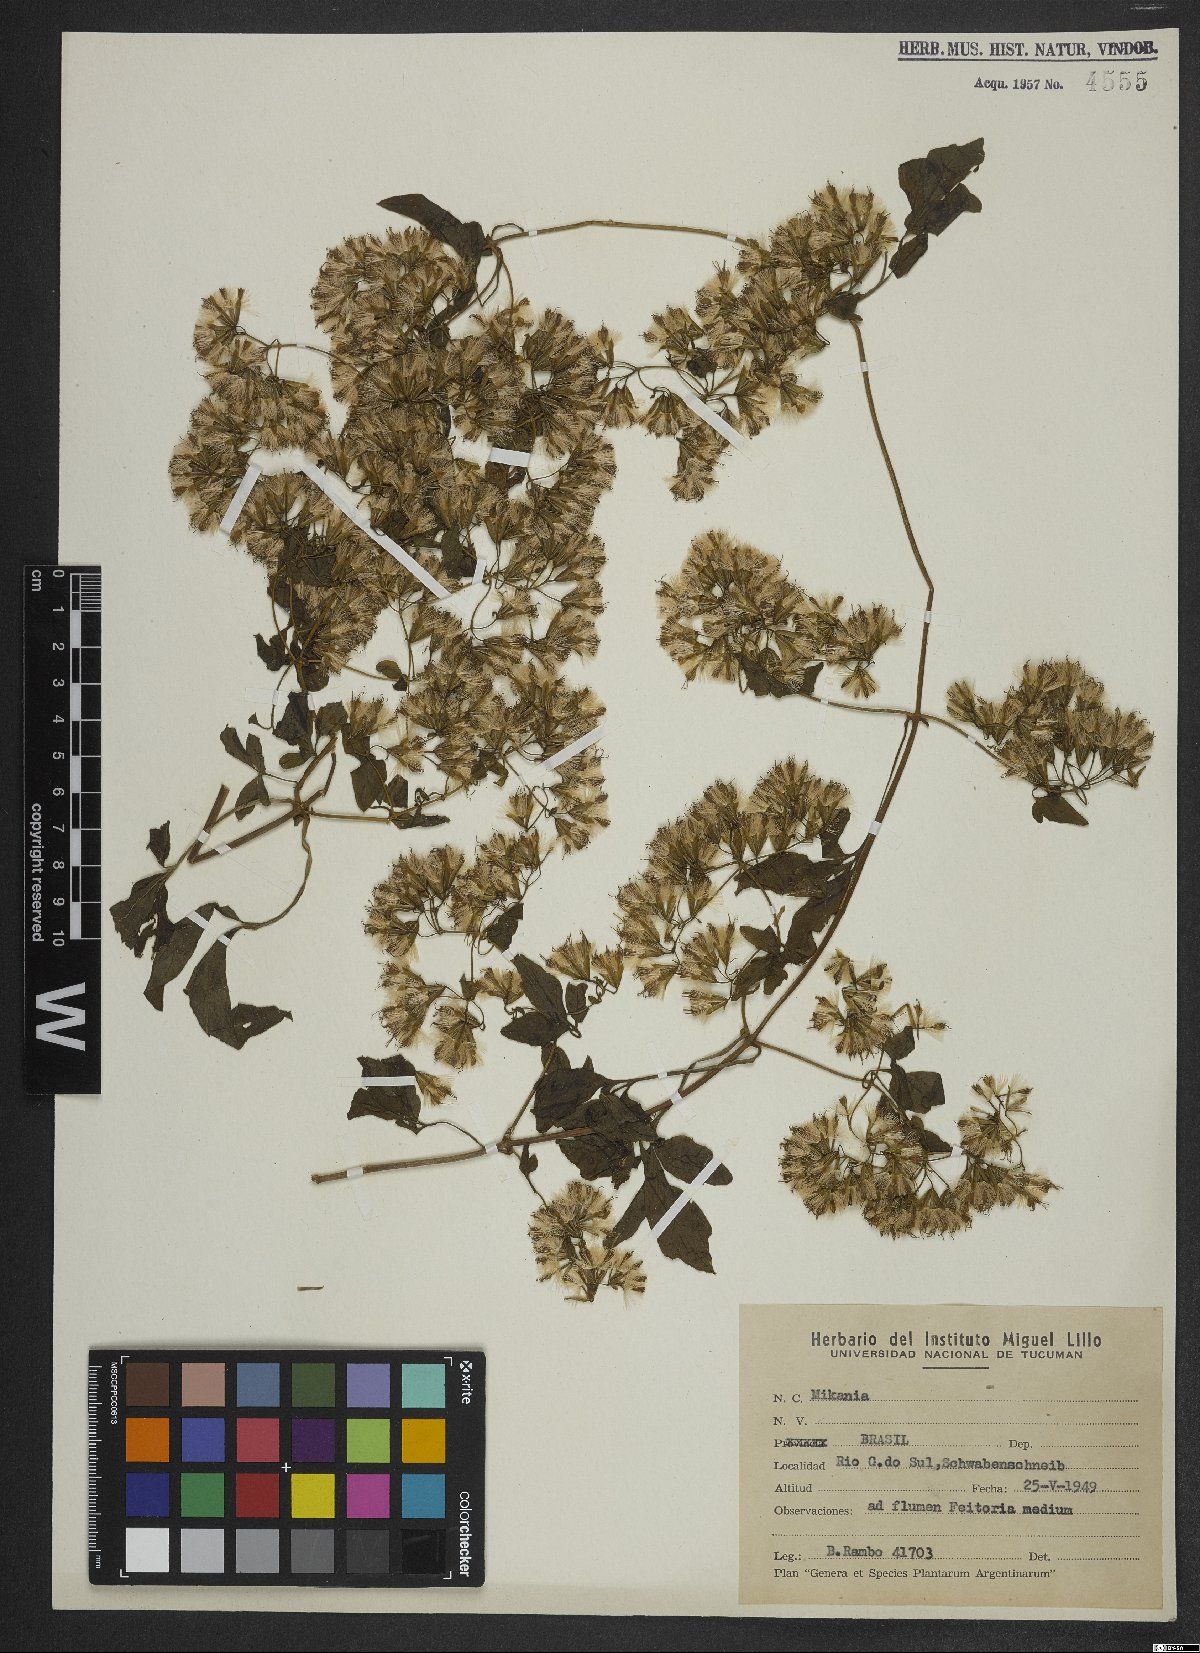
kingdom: Plantae
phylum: Tracheophyta
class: Magnoliopsida
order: Asterales
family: Asteraceae
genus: Mikania
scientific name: Mikania
